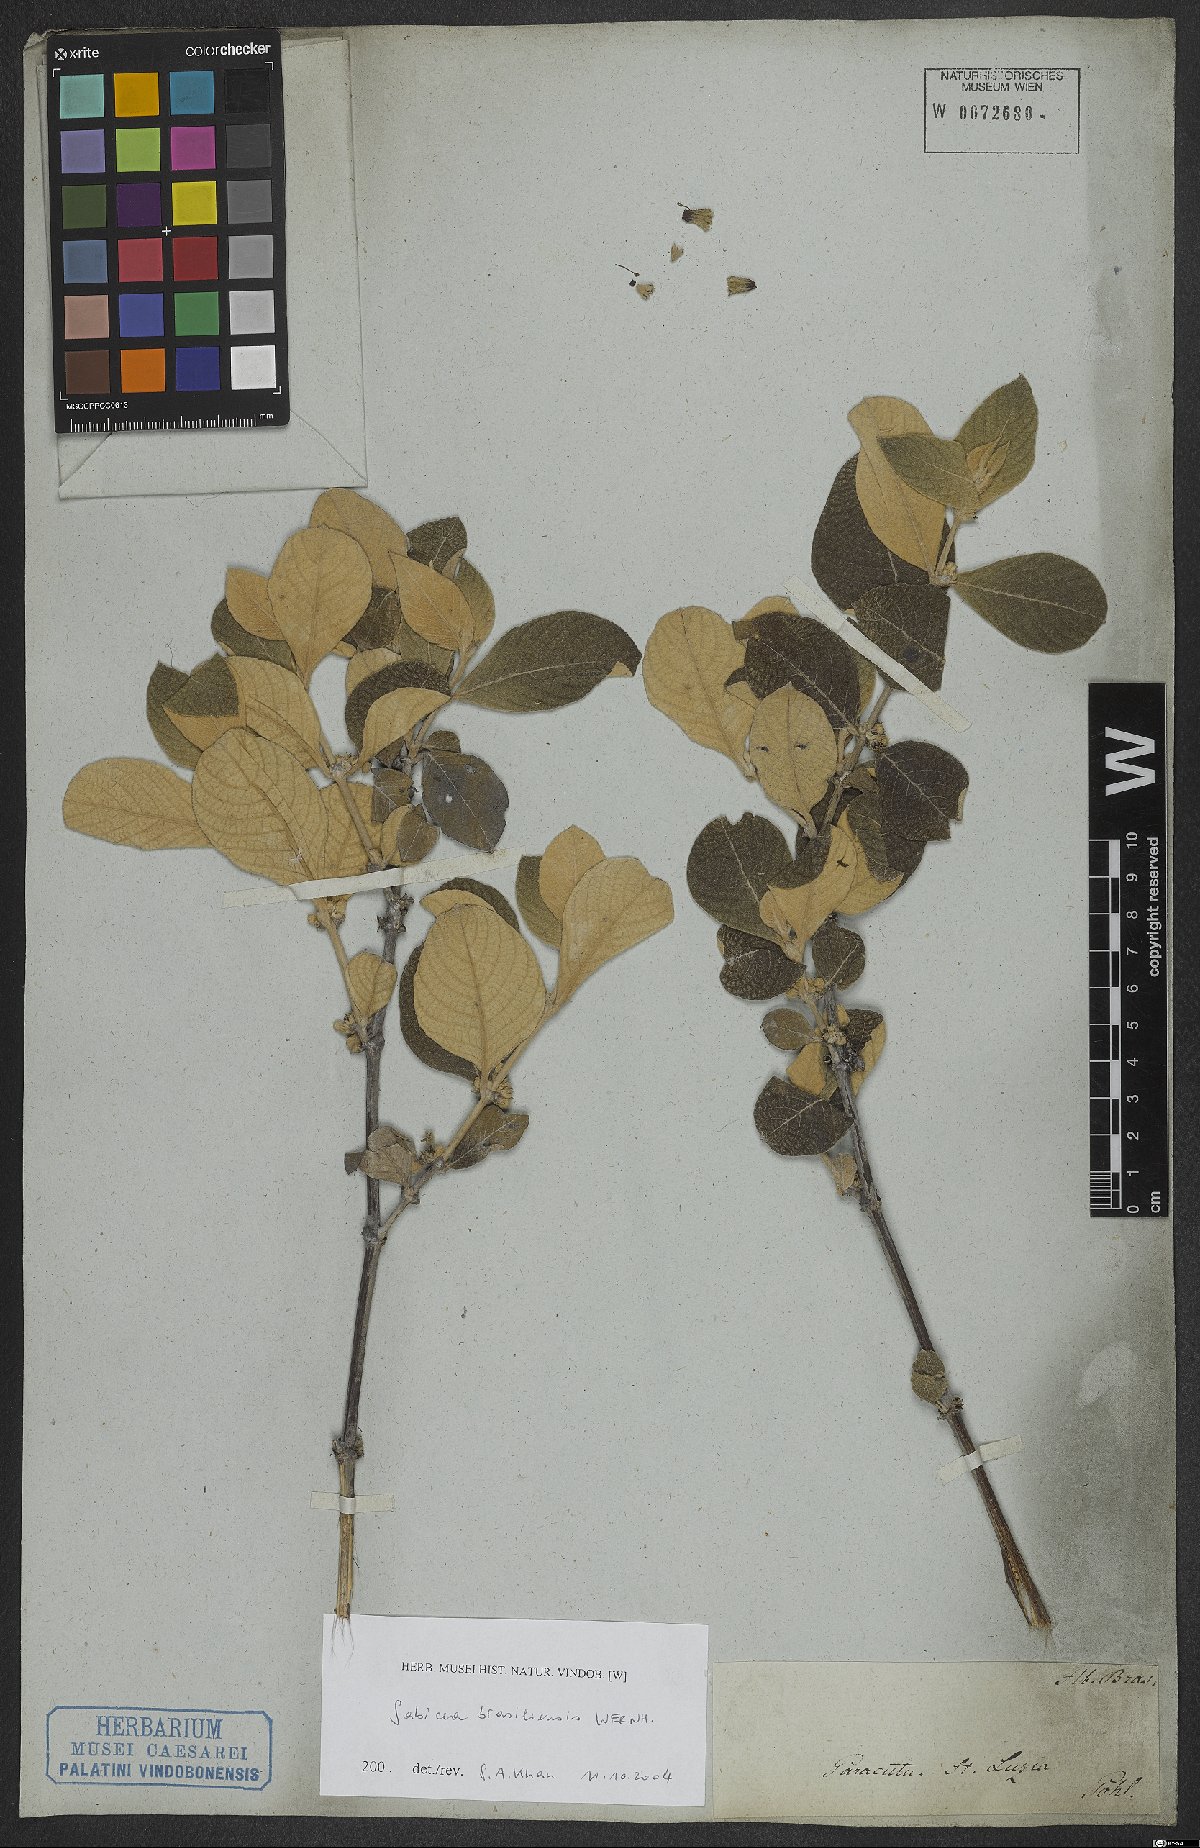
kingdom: Plantae
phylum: Tracheophyta
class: Magnoliopsida
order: Gentianales
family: Rubiaceae
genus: Sabicea
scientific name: Sabicea brasiliensis
